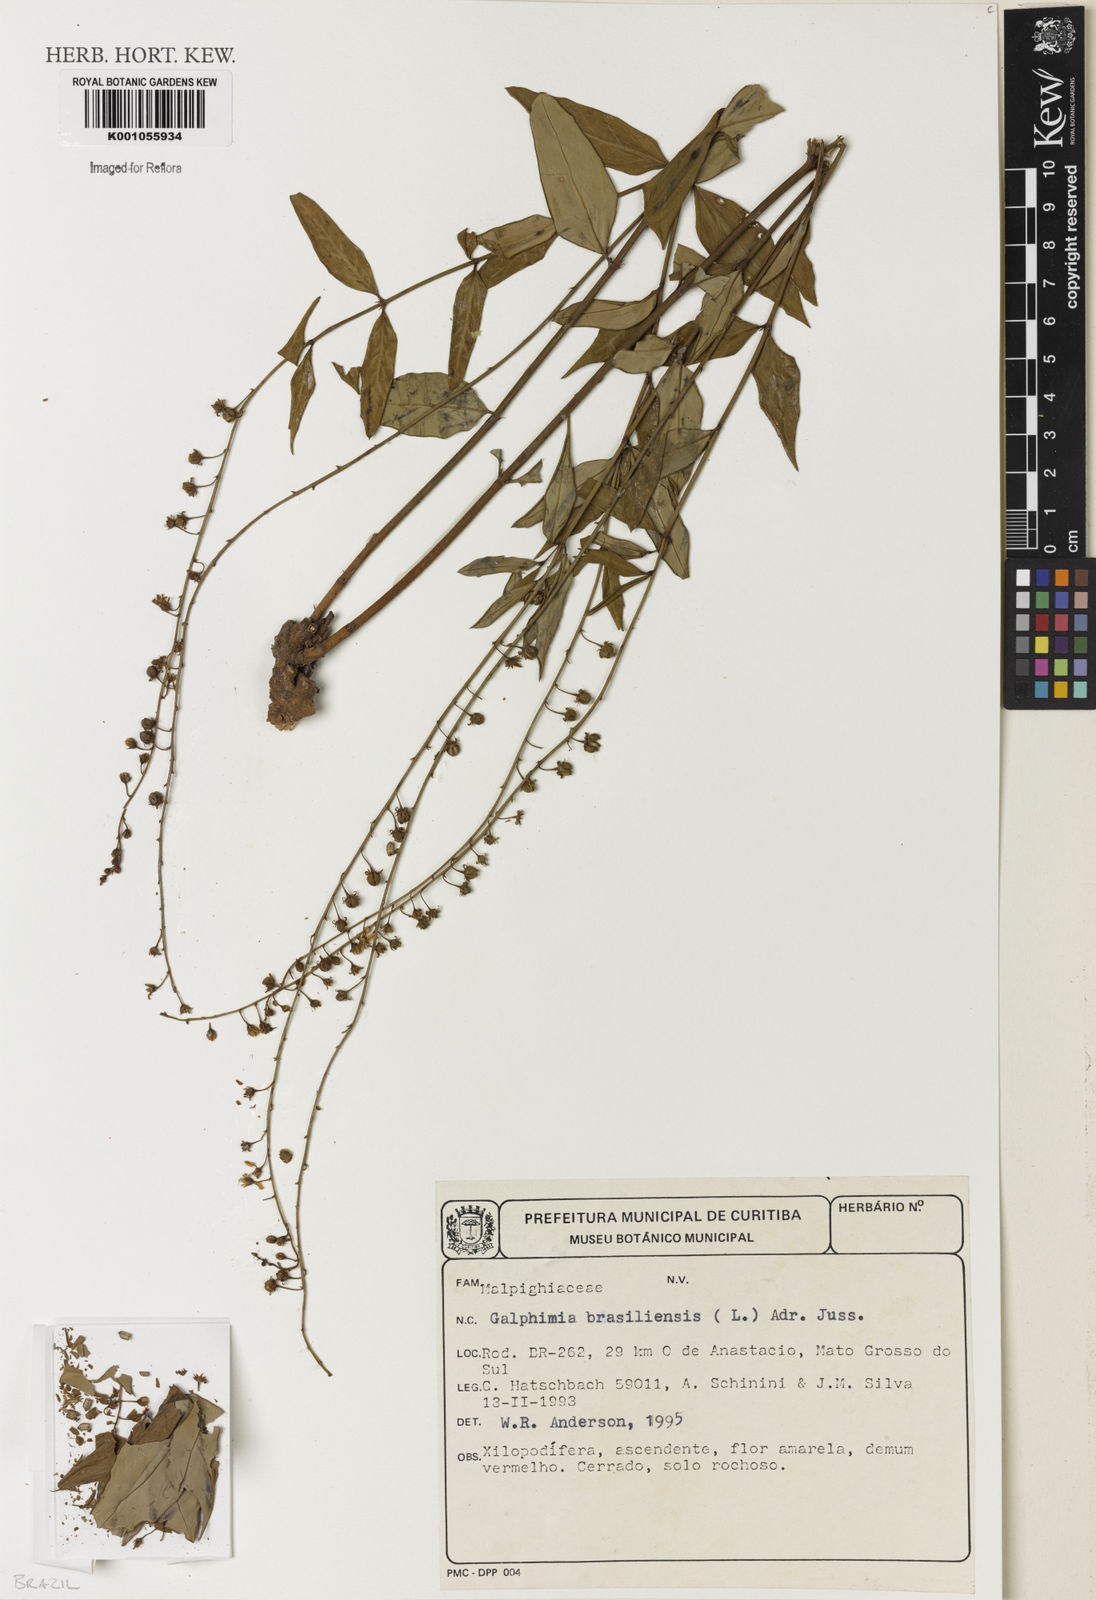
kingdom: Plantae
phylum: Tracheophyta
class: Magnoliopsida
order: Malpighiales
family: Malpighiaceae
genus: Galphimia
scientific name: Galphimia brasiliensis
